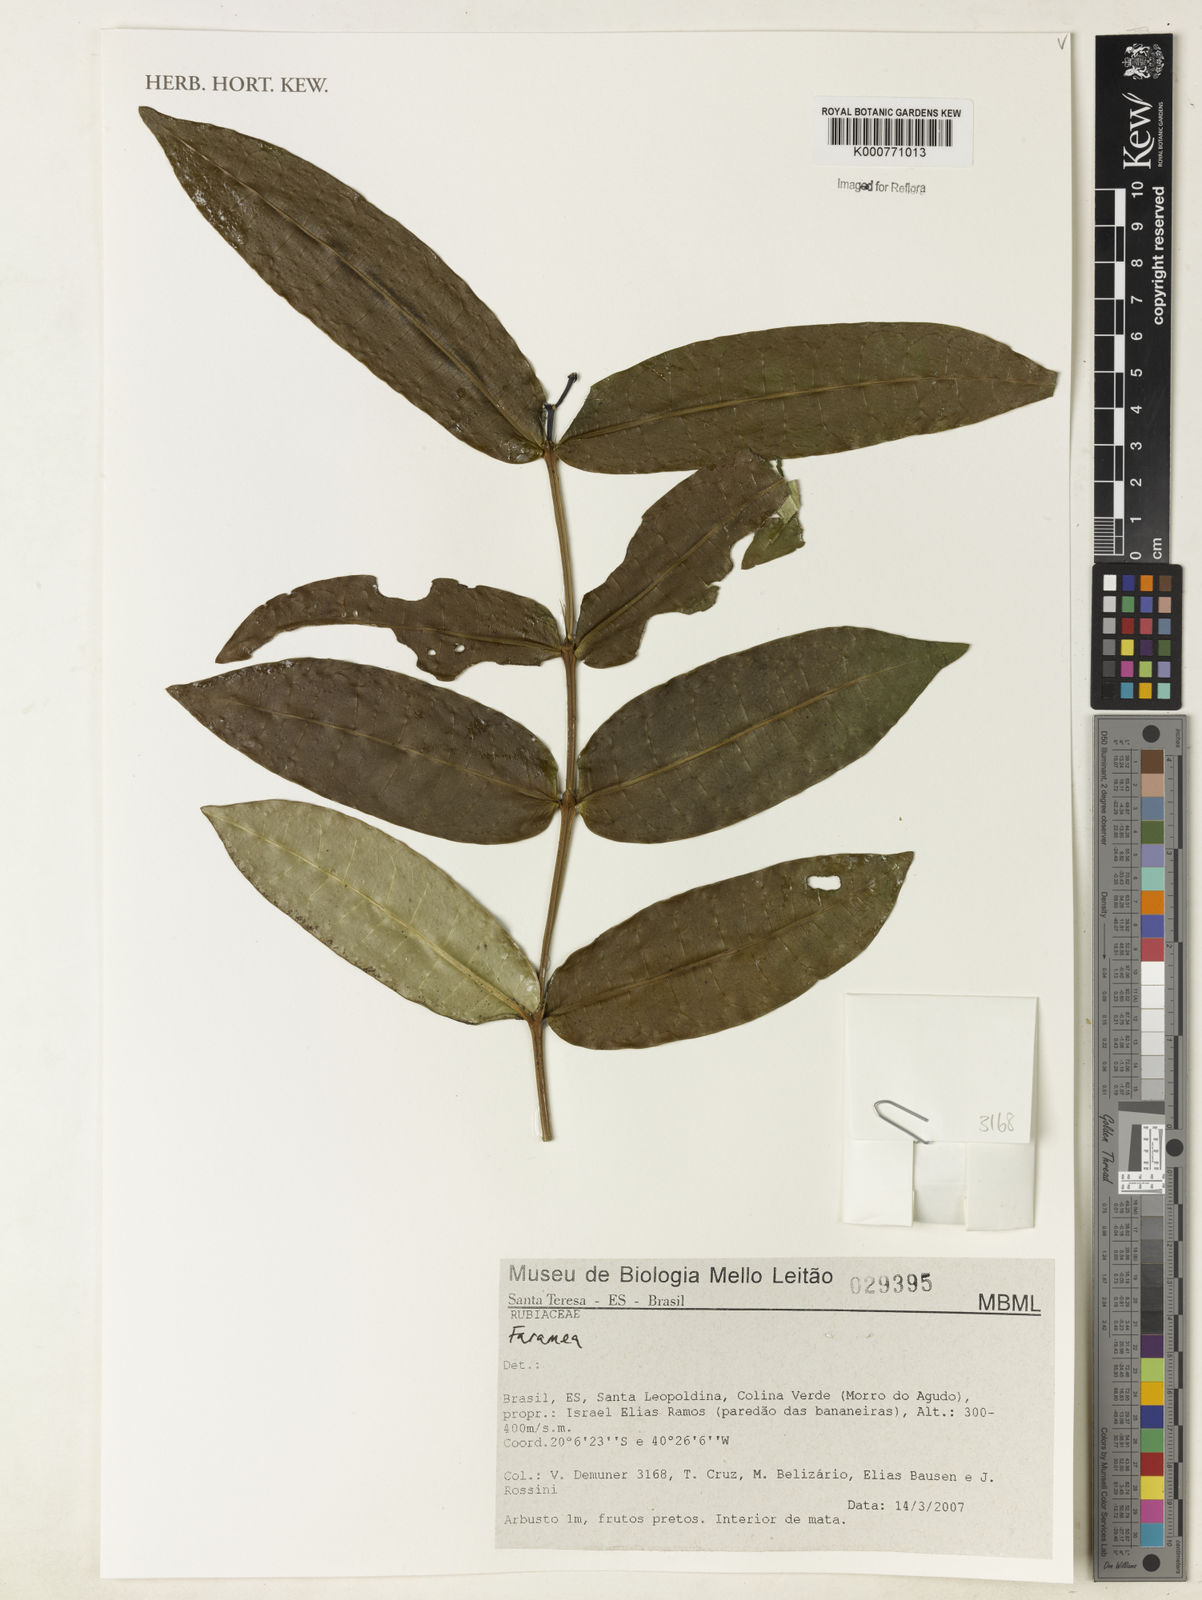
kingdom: Plantae
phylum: Tracheophyta
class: Magnoliopsida
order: Gentianales
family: Rubiaceae
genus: Faramea
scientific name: Faramea
